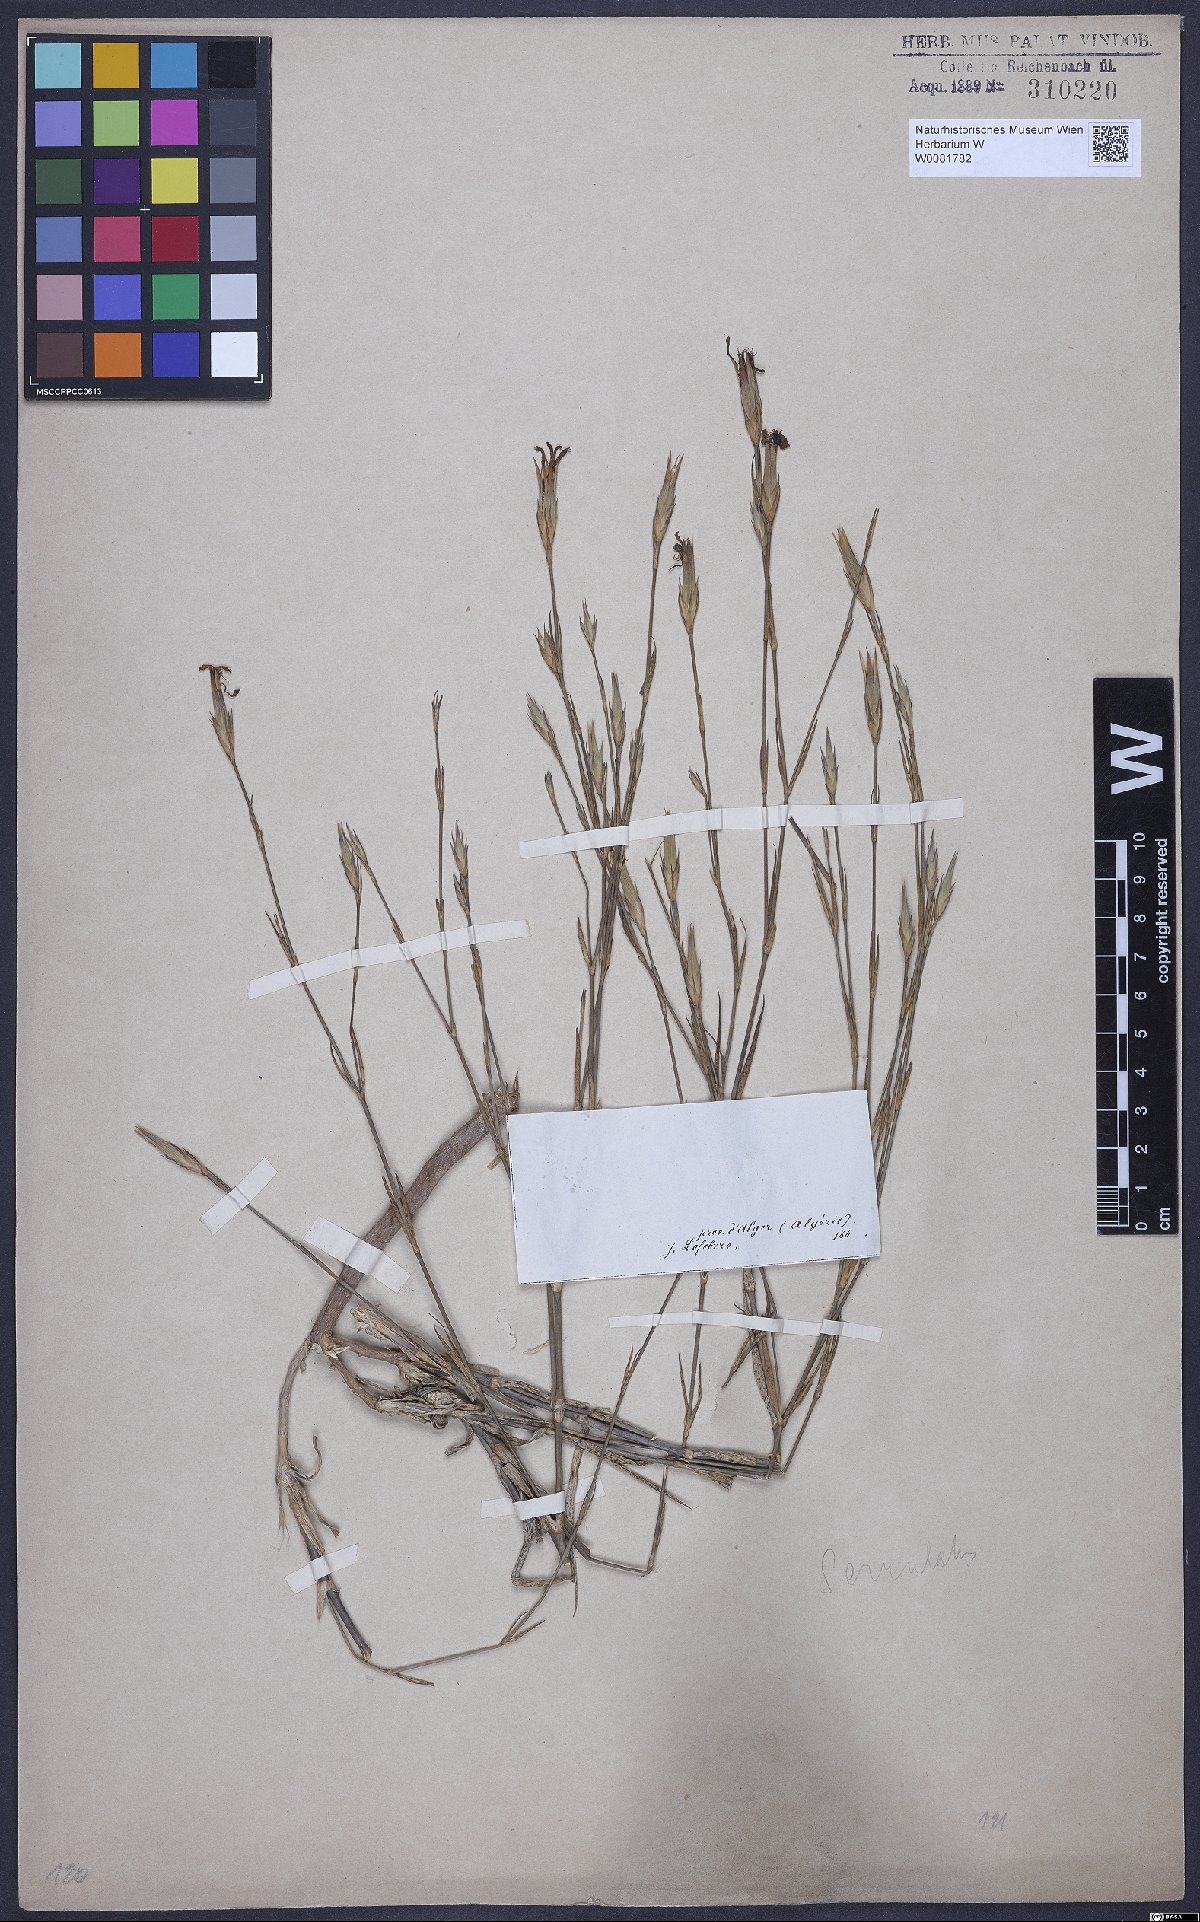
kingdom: Plantae
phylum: Tracheophyta
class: Magnoliopsida
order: Caryophyllales
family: Caryophyllaceae
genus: Dianthus
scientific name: Dianthus broteri
